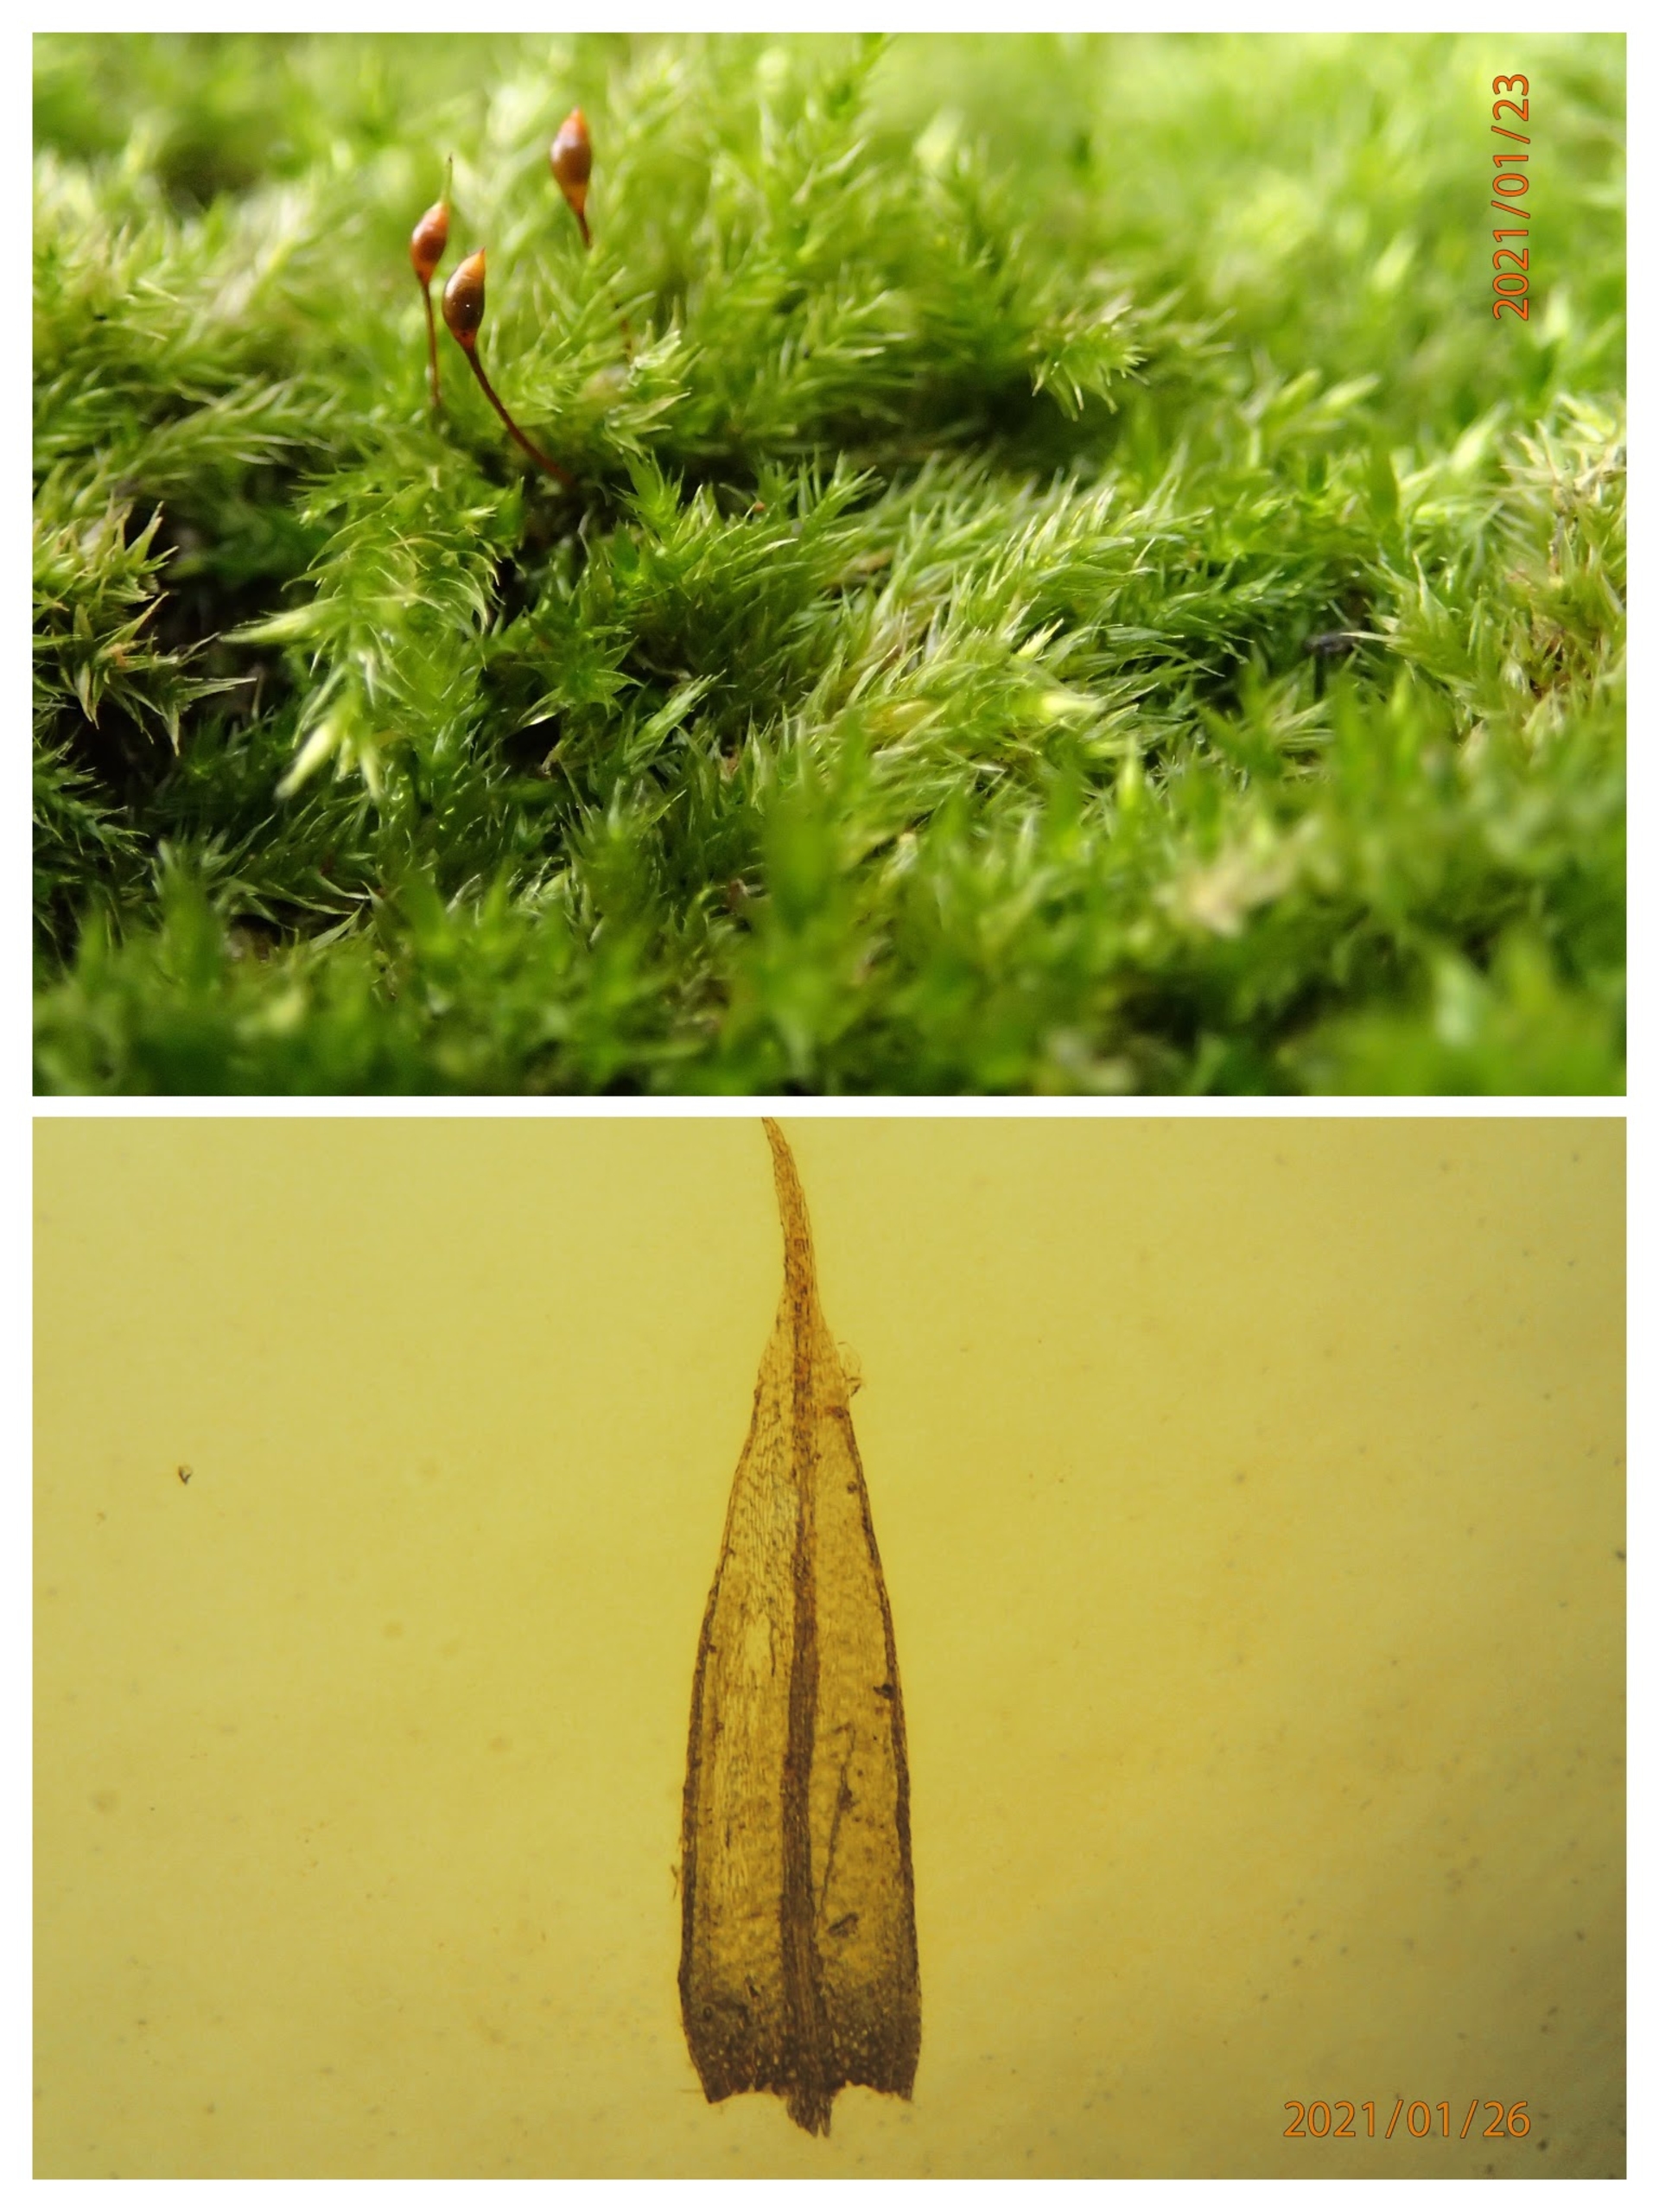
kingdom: Plantae
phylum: Bryophyta
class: Bryopsida
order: Hypnales
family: Brachytheciaceae
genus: Sciuro-hypnum
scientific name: Sciuro-hypnum populeum
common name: Park-kortkapsel
